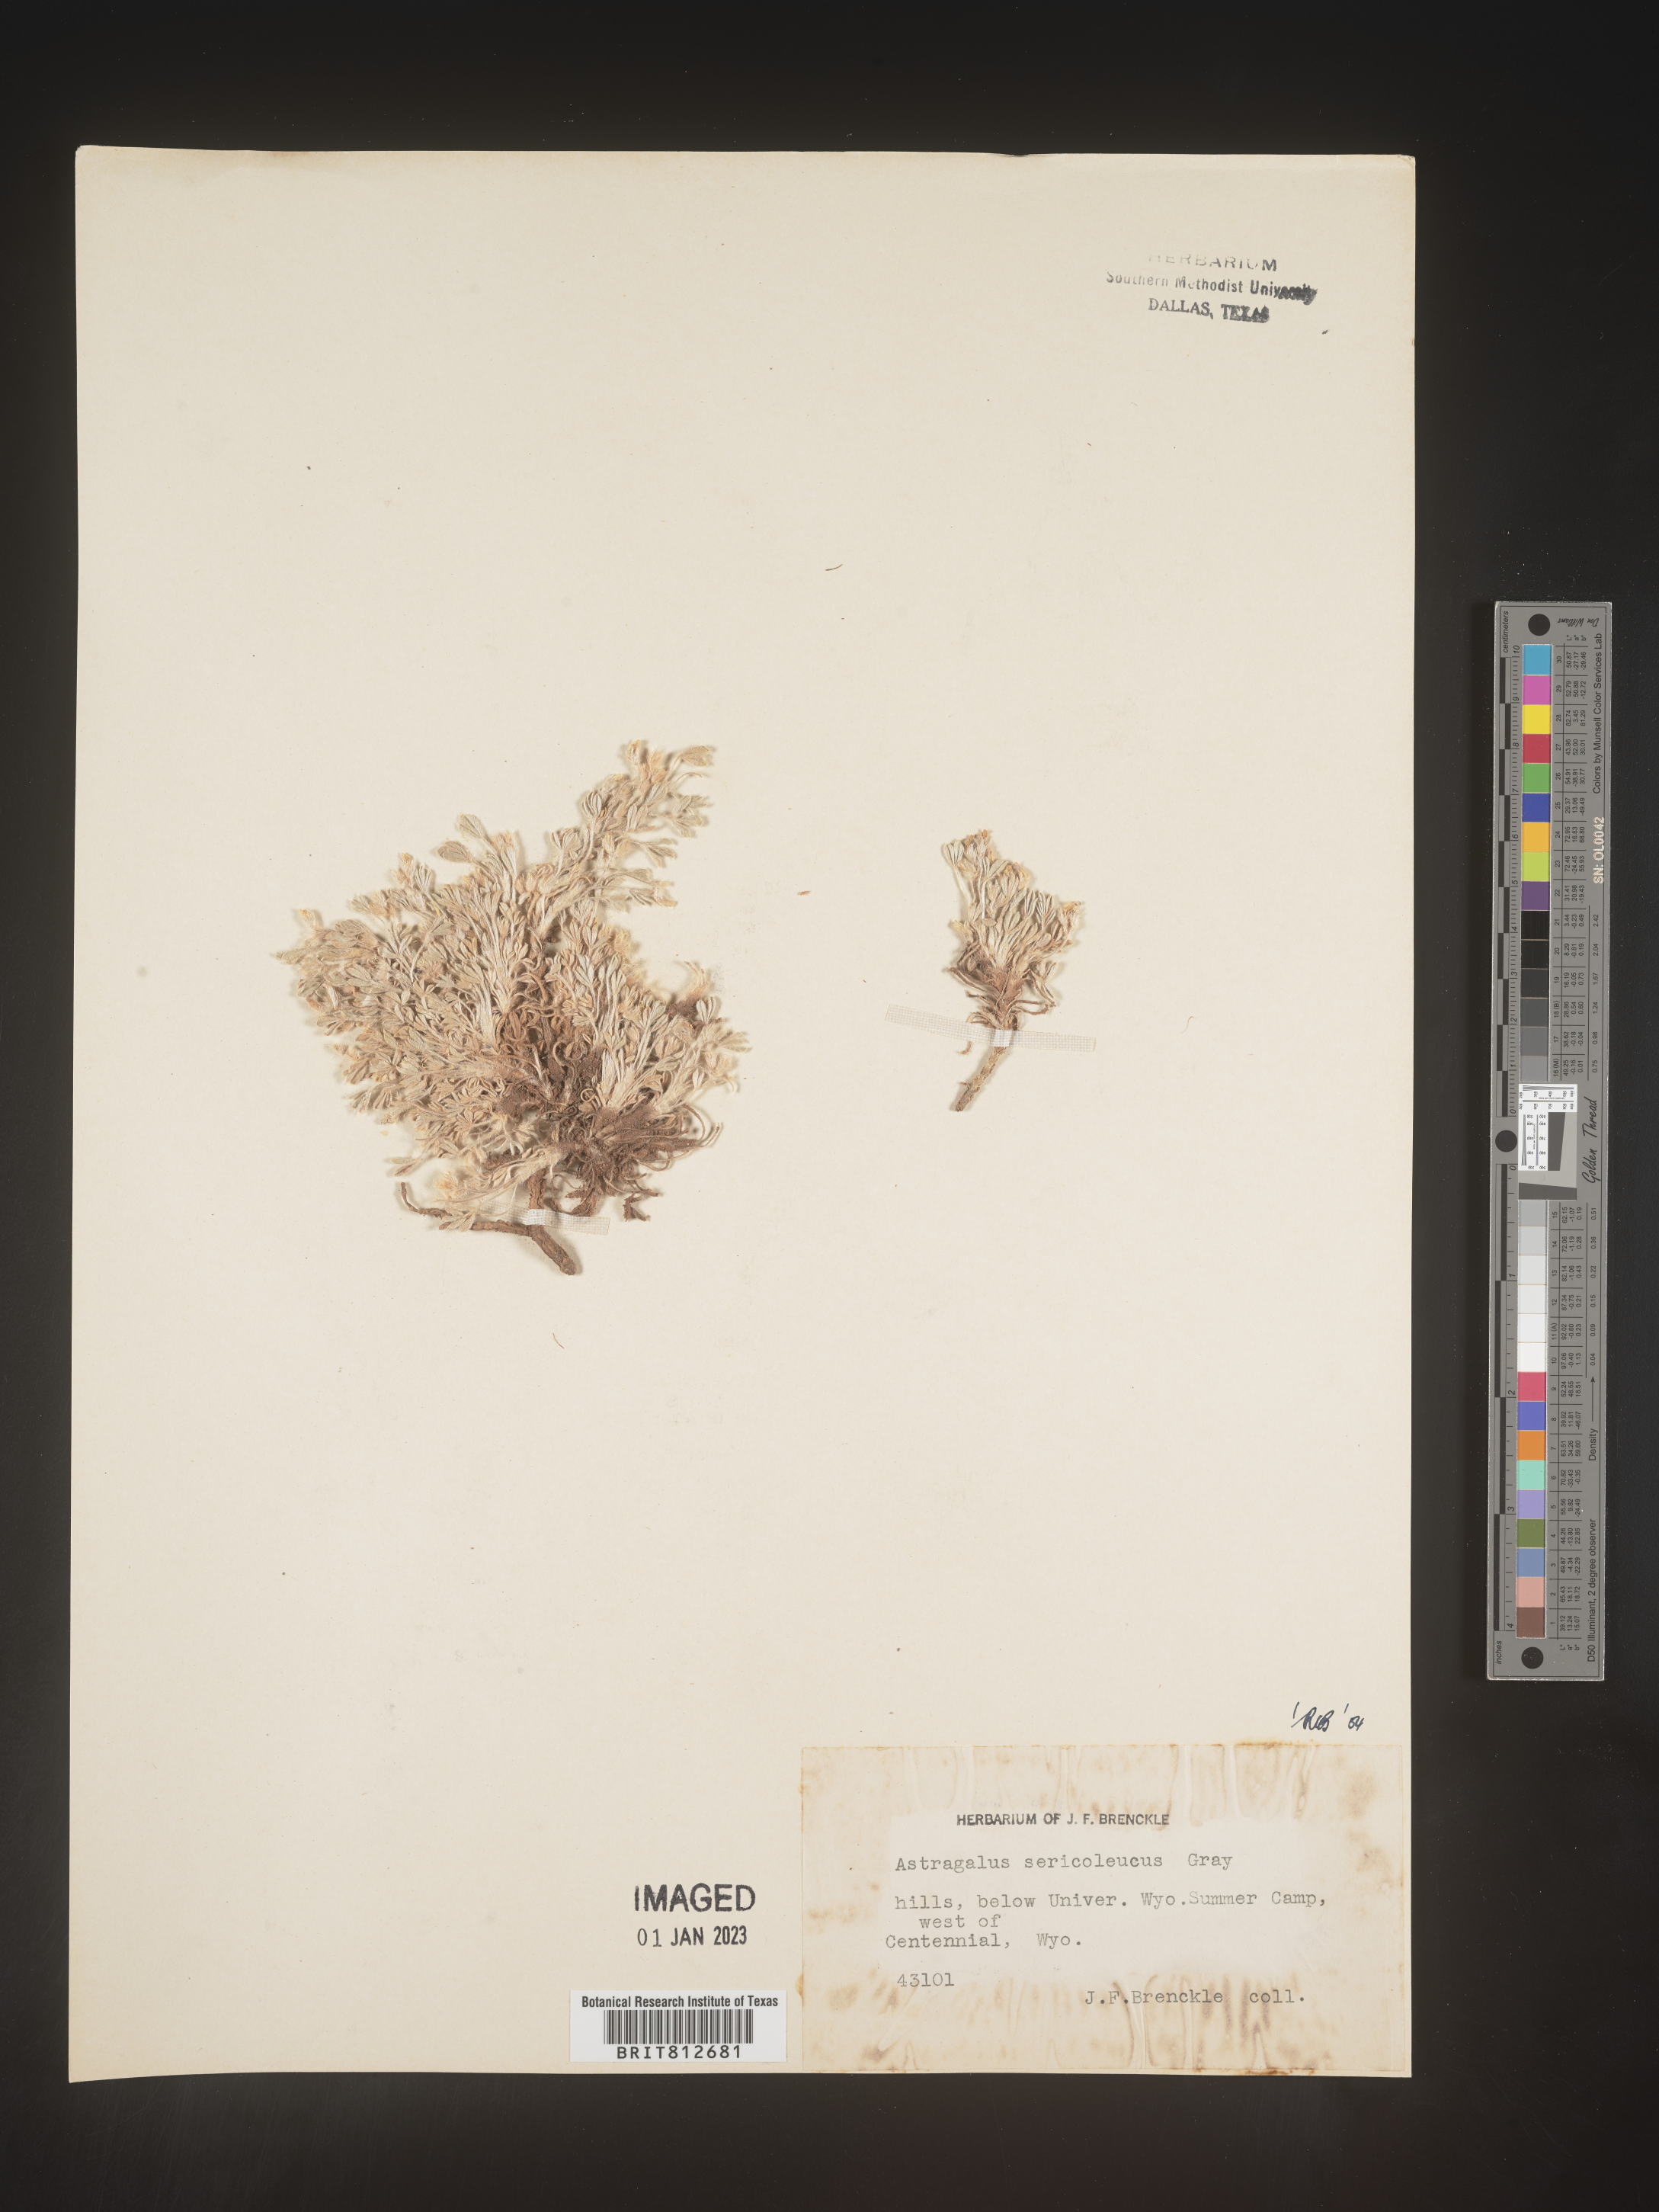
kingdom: Plantae
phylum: Tracheophyta
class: Magnoliopsida
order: Fabales
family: Fabaceae
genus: Astragalus
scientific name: Astragalus
